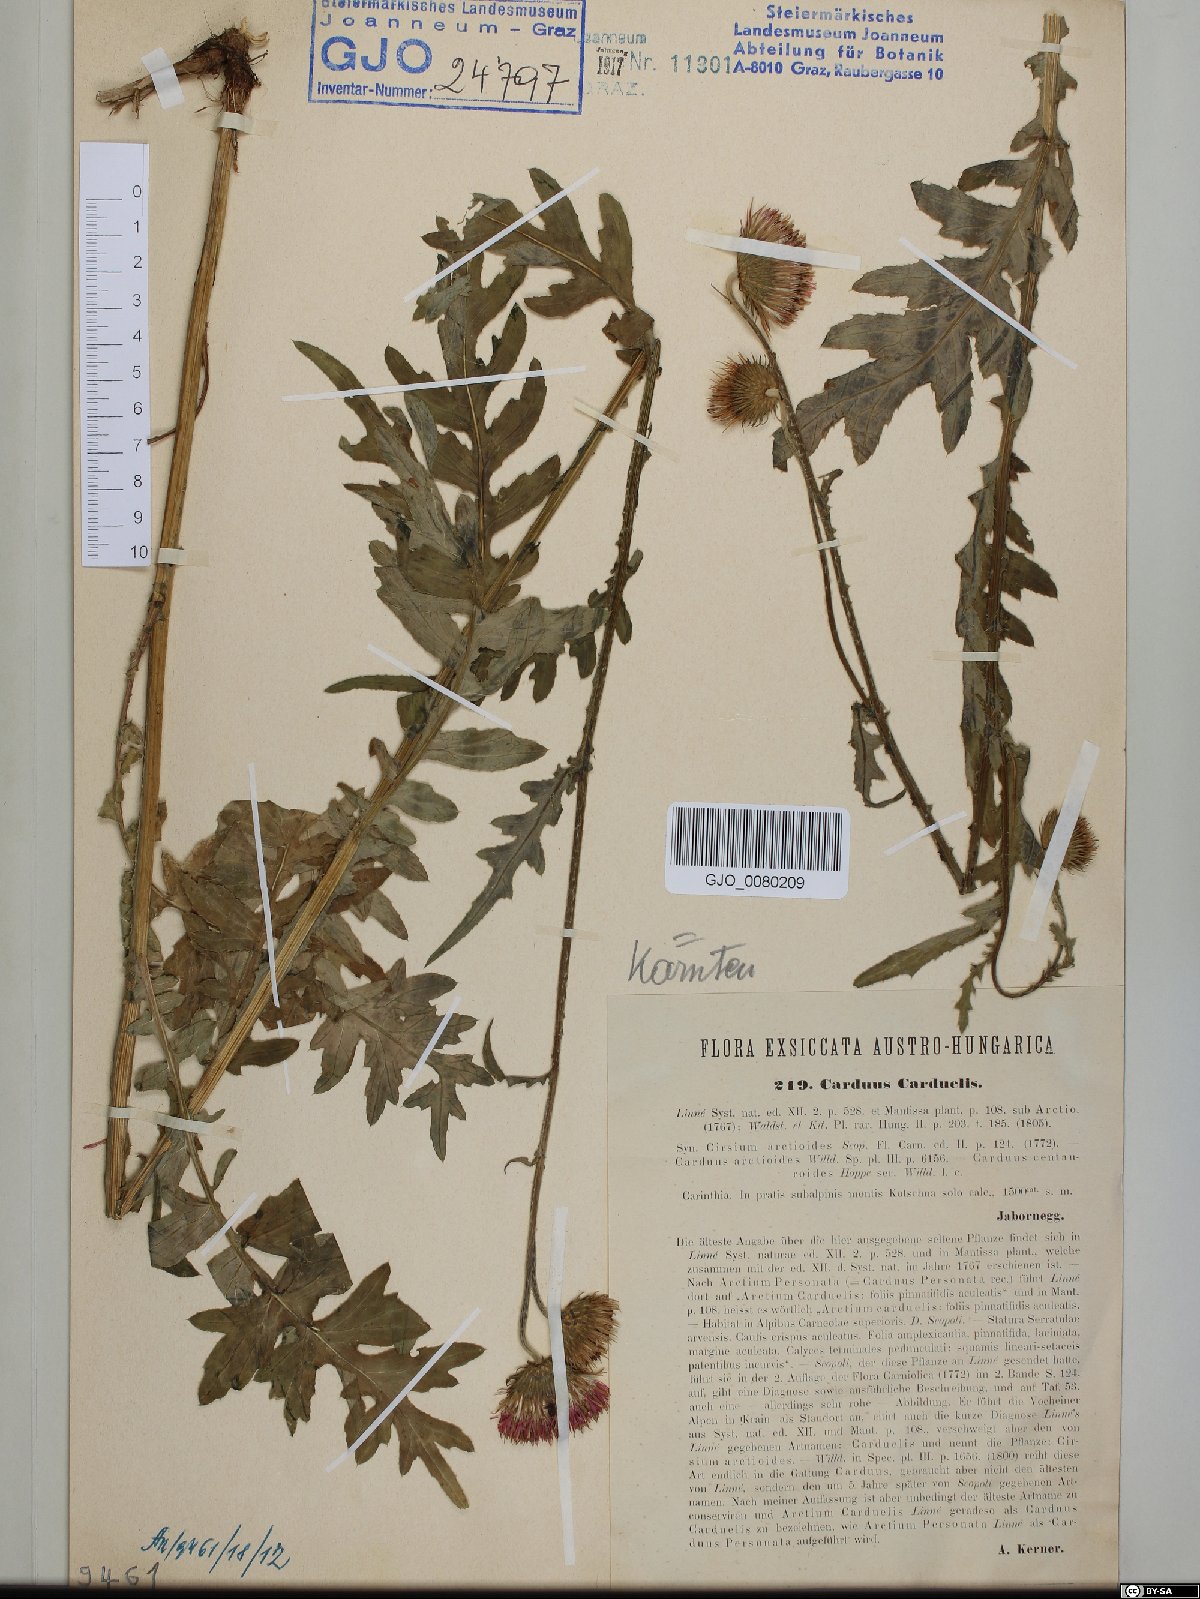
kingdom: Plantae
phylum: Tracheophyta
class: Magnoliopsida
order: Asterales
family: Asteraceae
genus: Carduus
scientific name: Carduus carduelis
